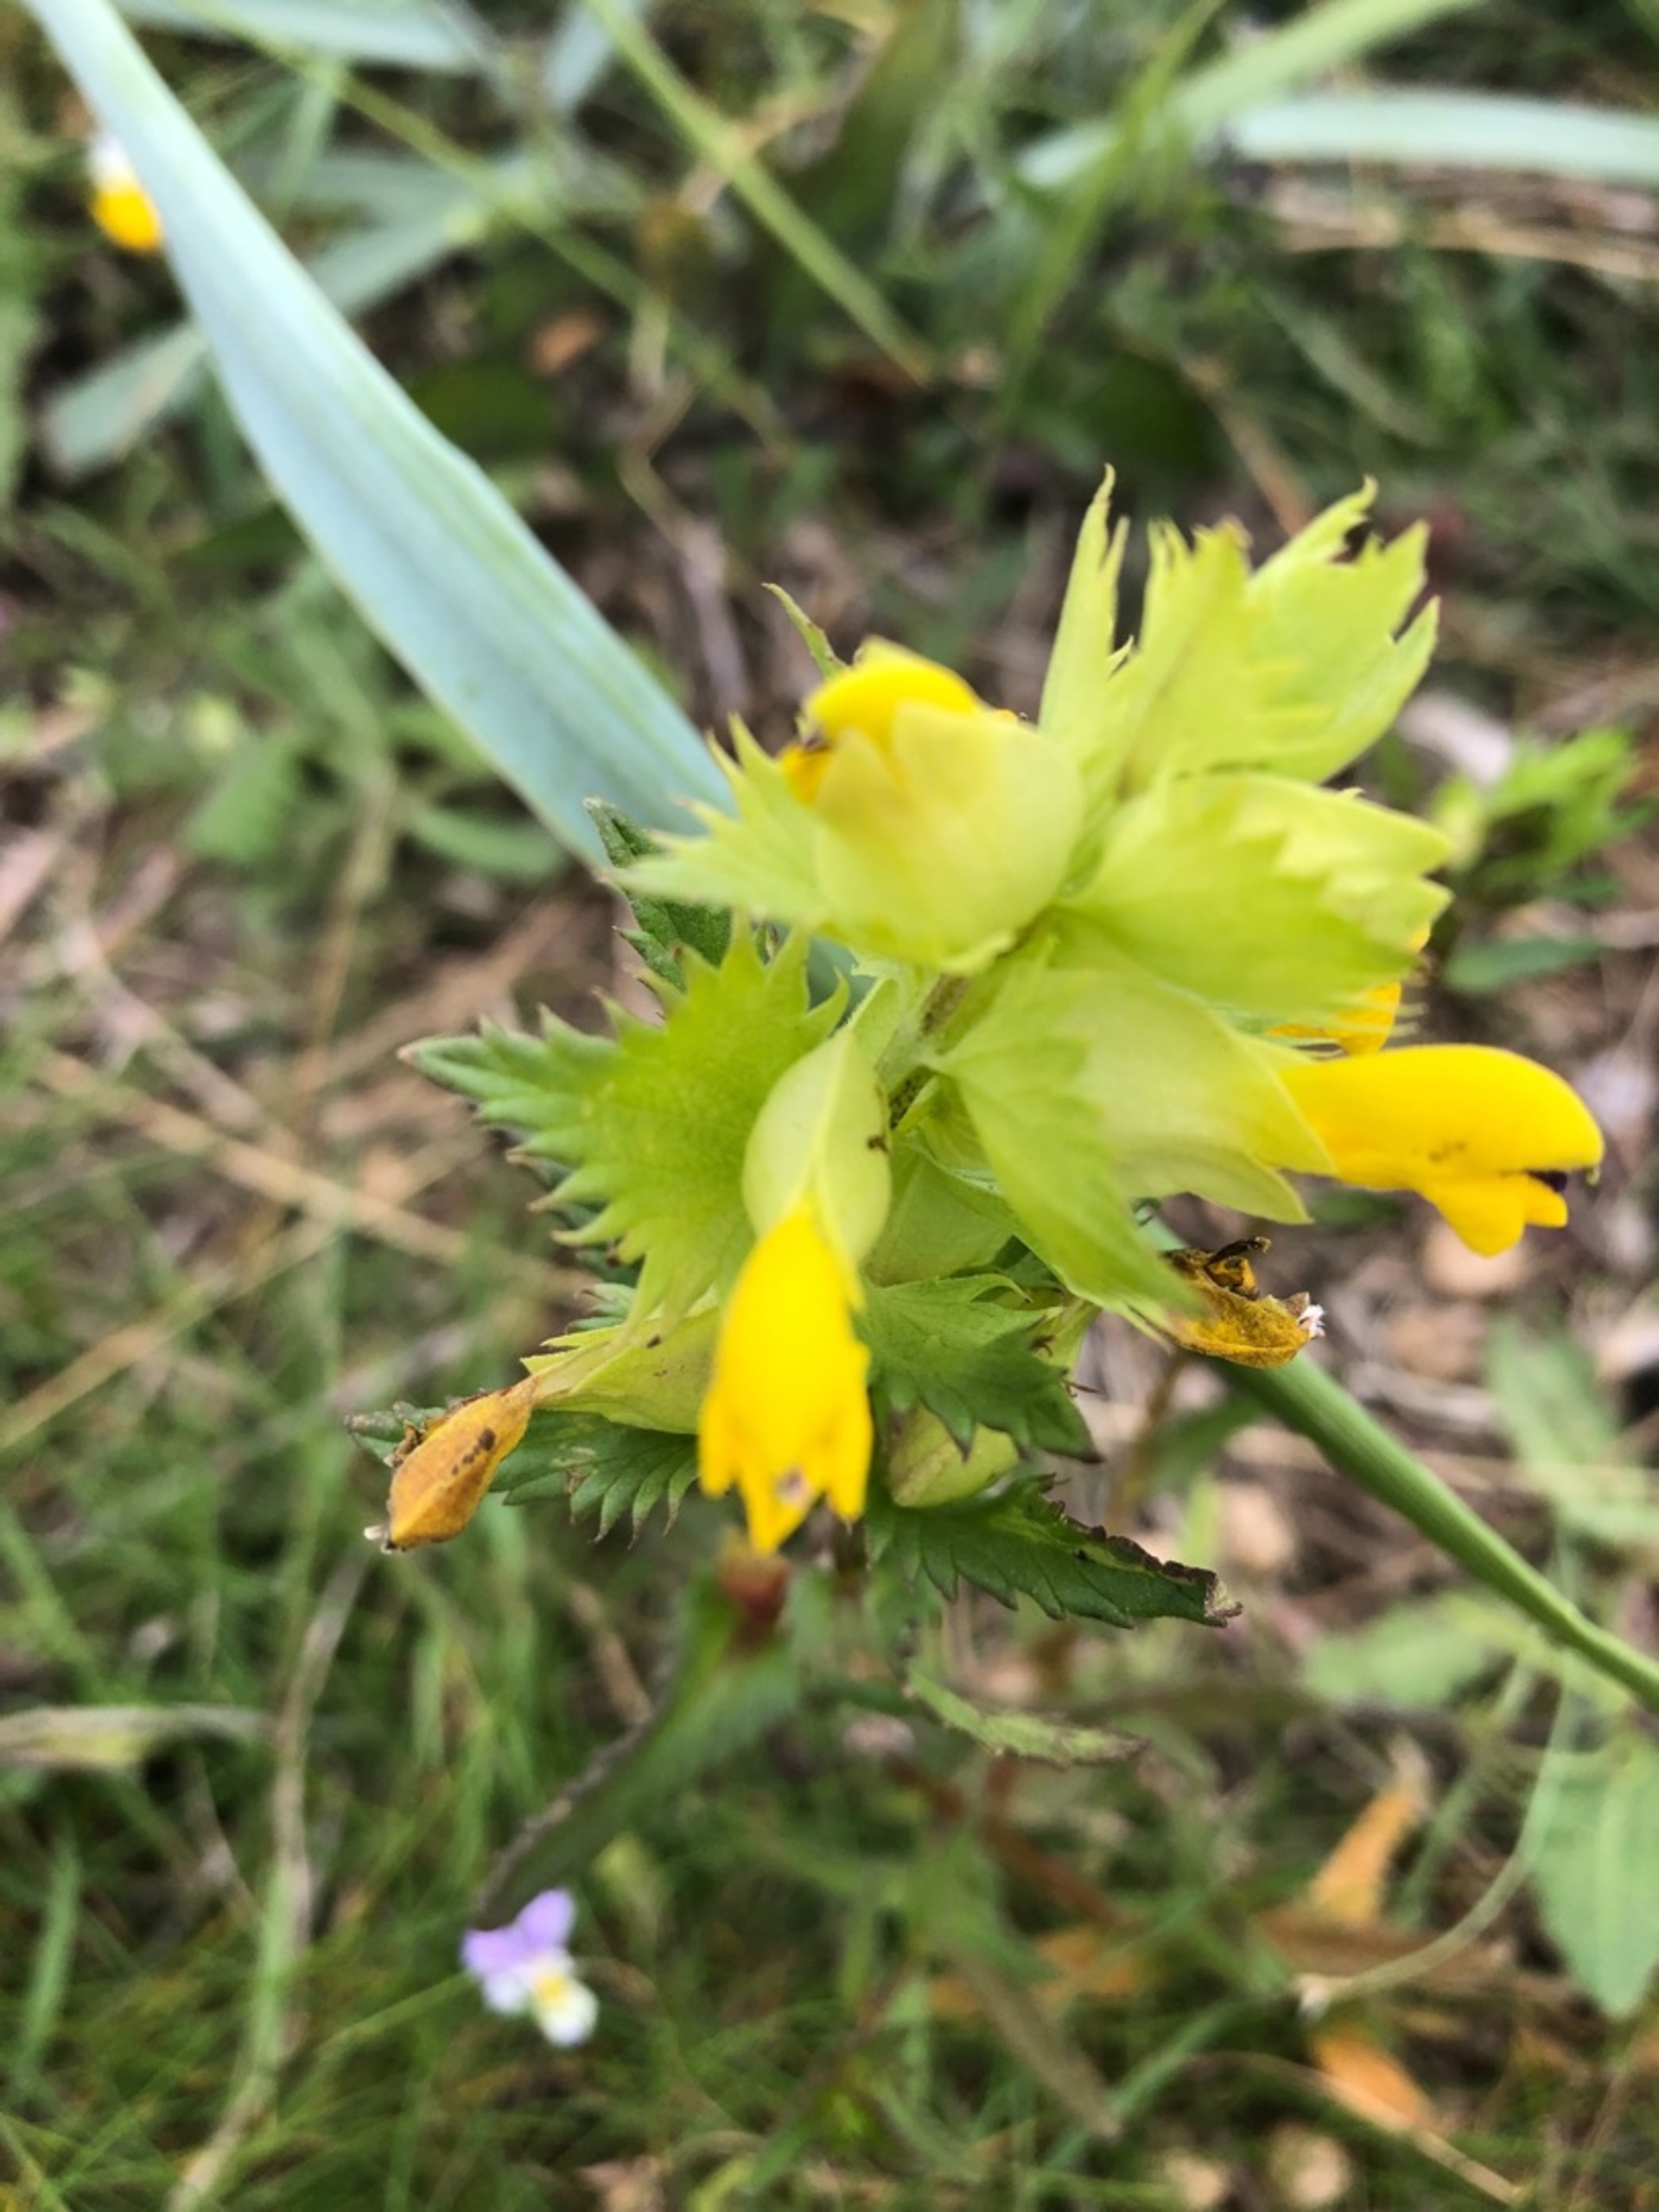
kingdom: Plantae
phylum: Tracheophyta
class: Magnoliopsida
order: Lamiales
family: Orobanchaceae
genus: Rhinanthus
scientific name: Rhinanthus
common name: Stor skjaller
